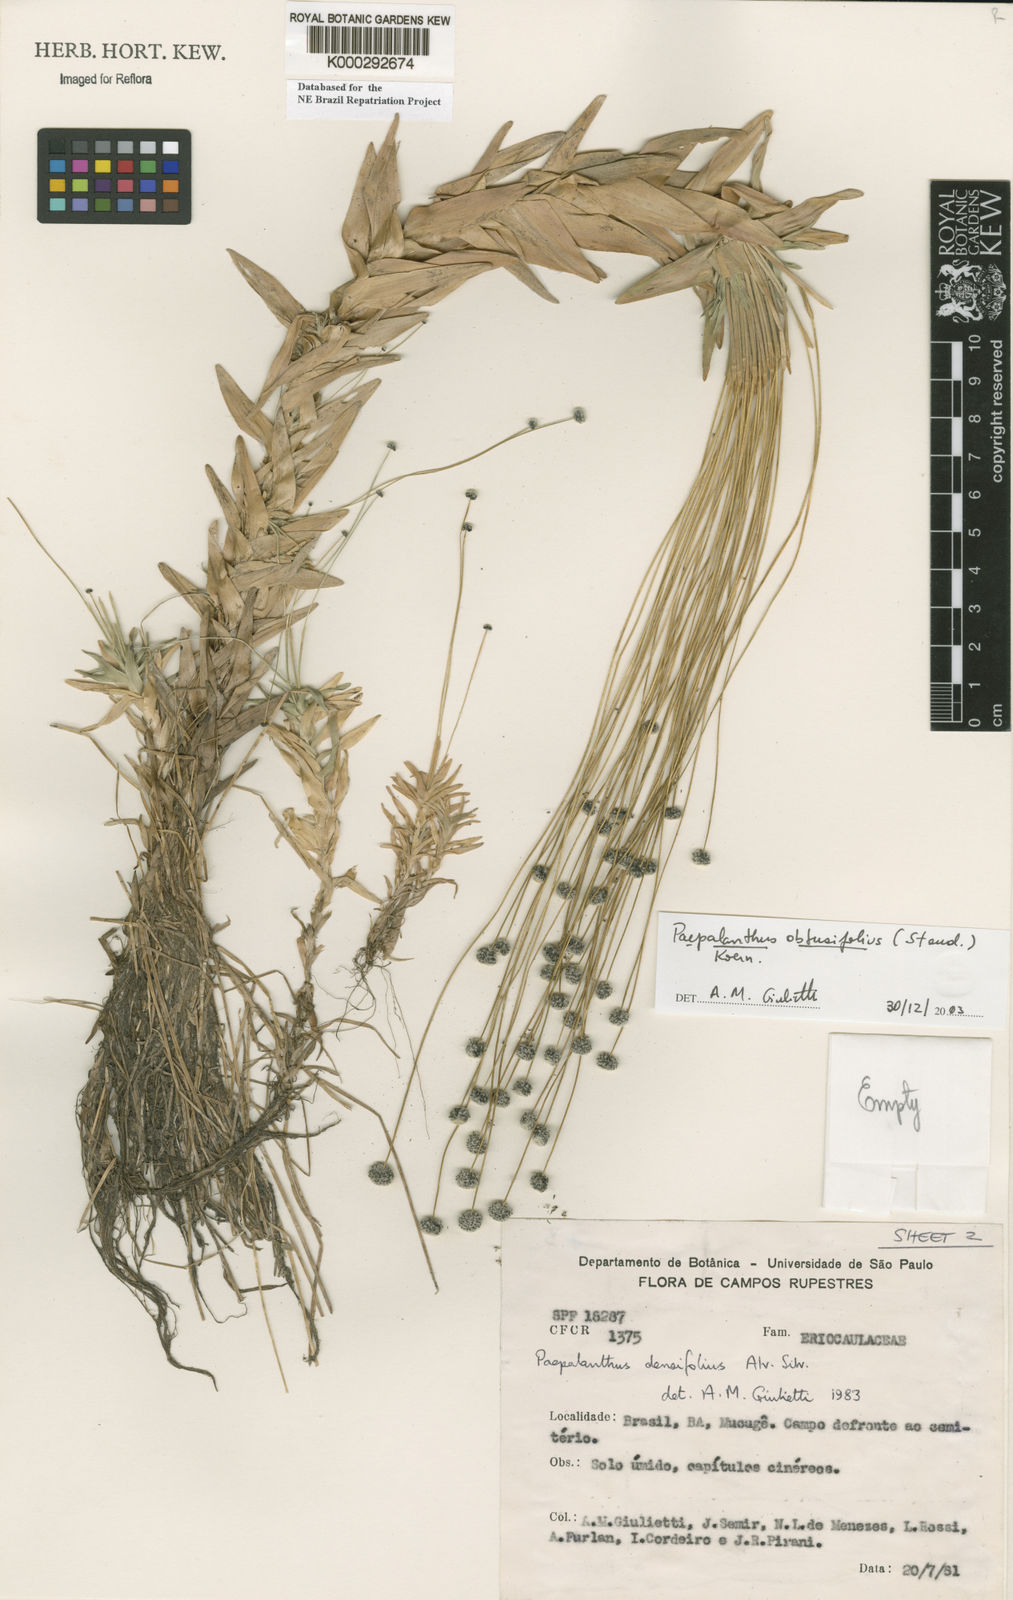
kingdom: Plantae
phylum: Tracheophyta
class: Liliopsida
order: Poales
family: Eriocaulaceae
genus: Paepalanthus
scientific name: Paepalanthus
